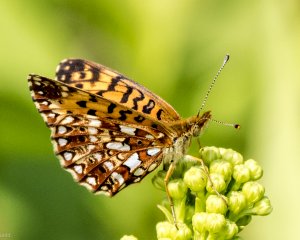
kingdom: Animalia
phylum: Arthropoda
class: Insecta
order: Lepidoptera
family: Nymphalidae
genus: Boloria
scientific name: Boloria selene
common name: Silver-bordered Fritillary
